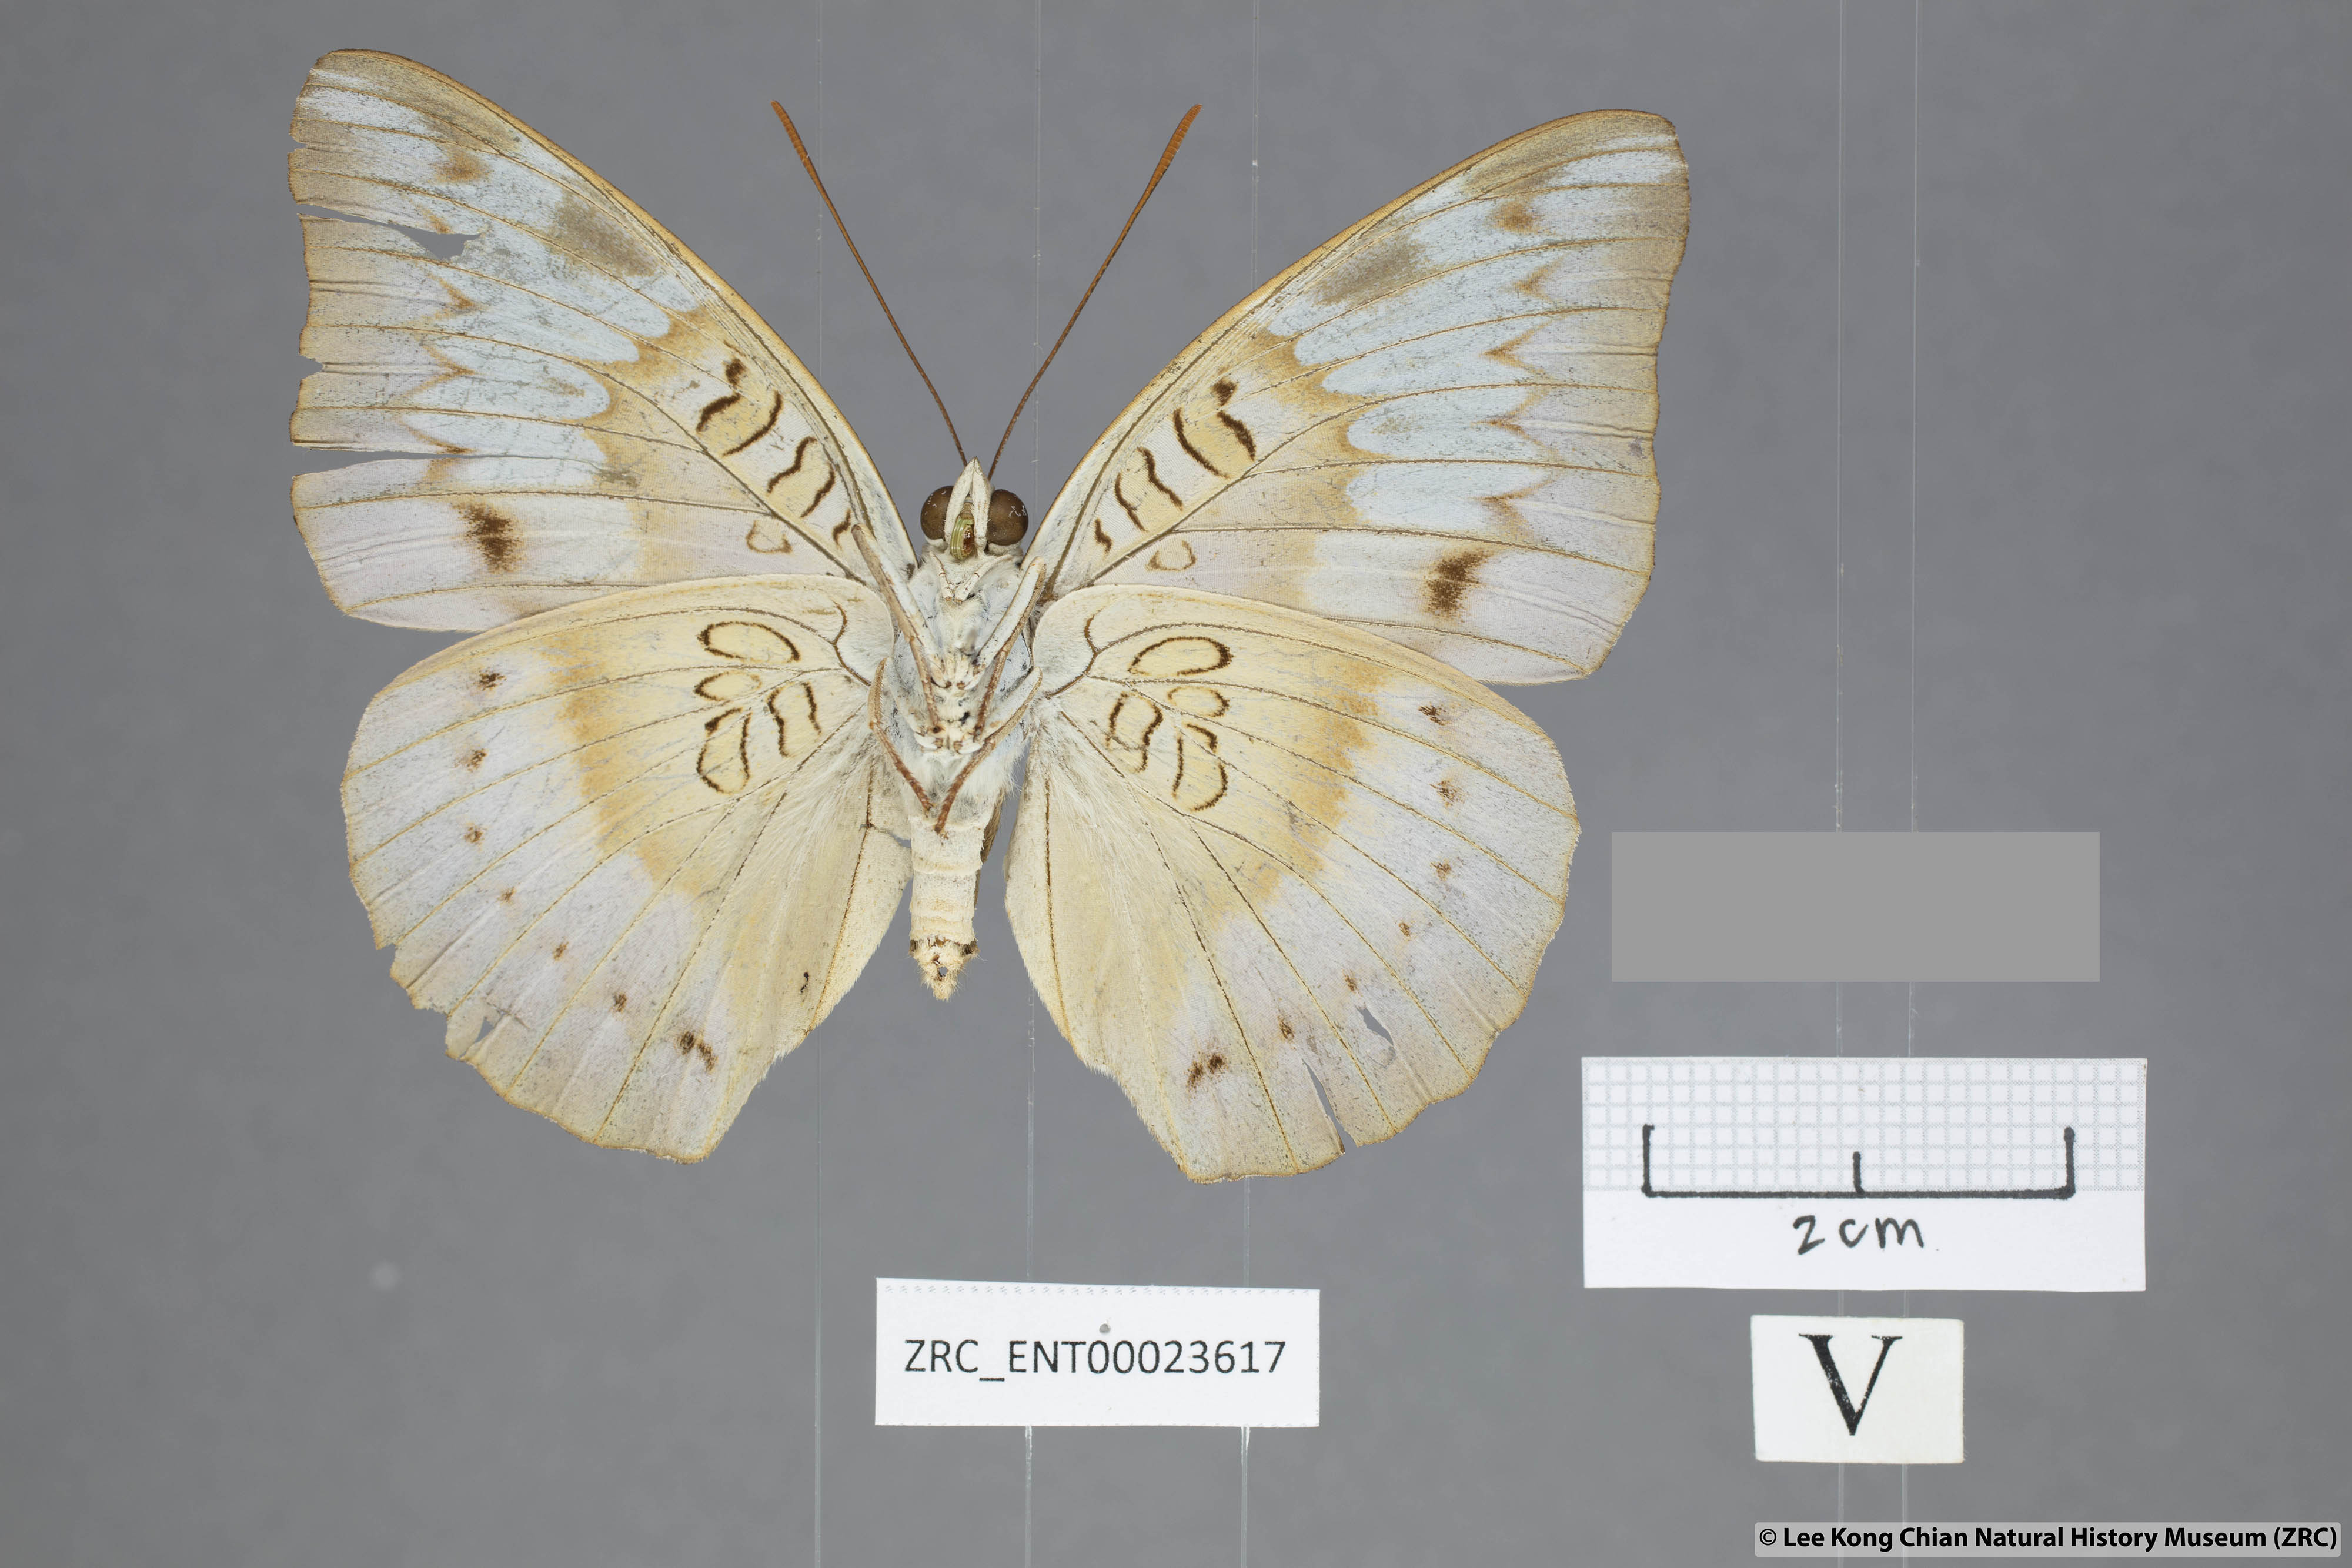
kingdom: Animalia
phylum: Arthropoda
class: Insecta
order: Lepidoptera
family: Nymphalidae
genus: Euthalia
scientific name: Euthalia alpheda
